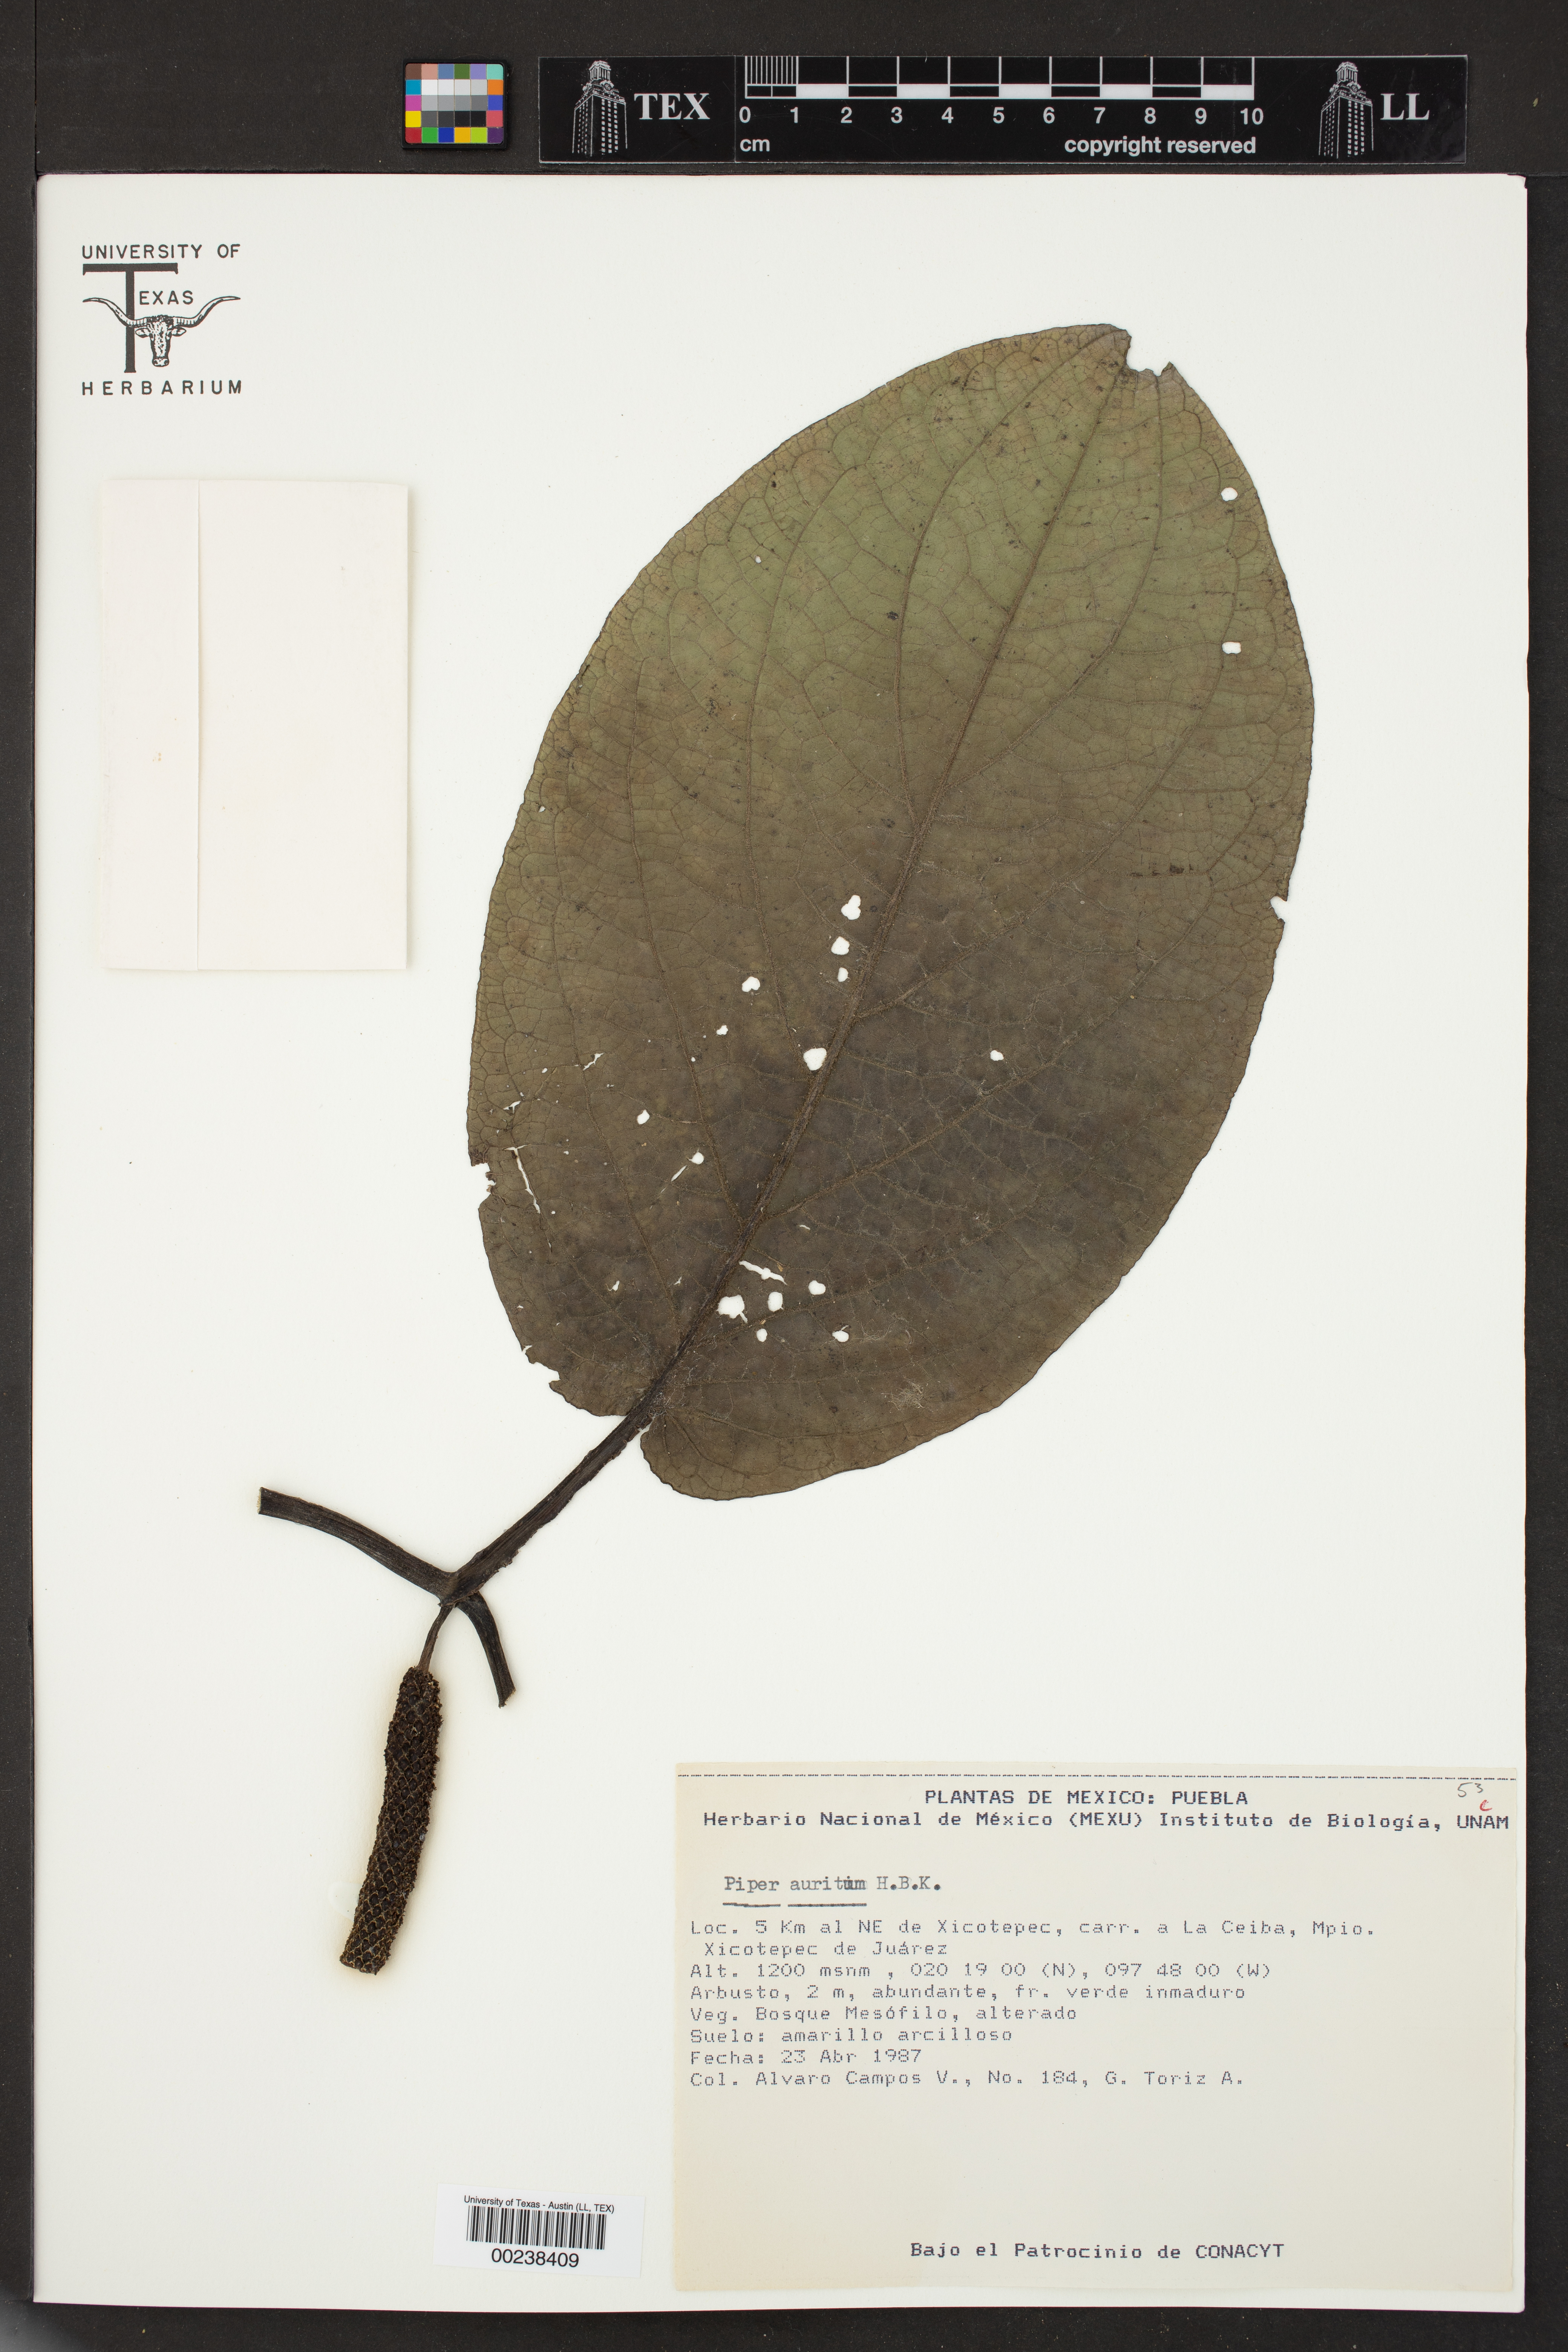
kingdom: Plantae
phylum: Tracheophyta
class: Magnoliopsida
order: Piperales
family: Piperaceae
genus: Piper
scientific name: Piper auritum
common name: Vera cruz pepper
